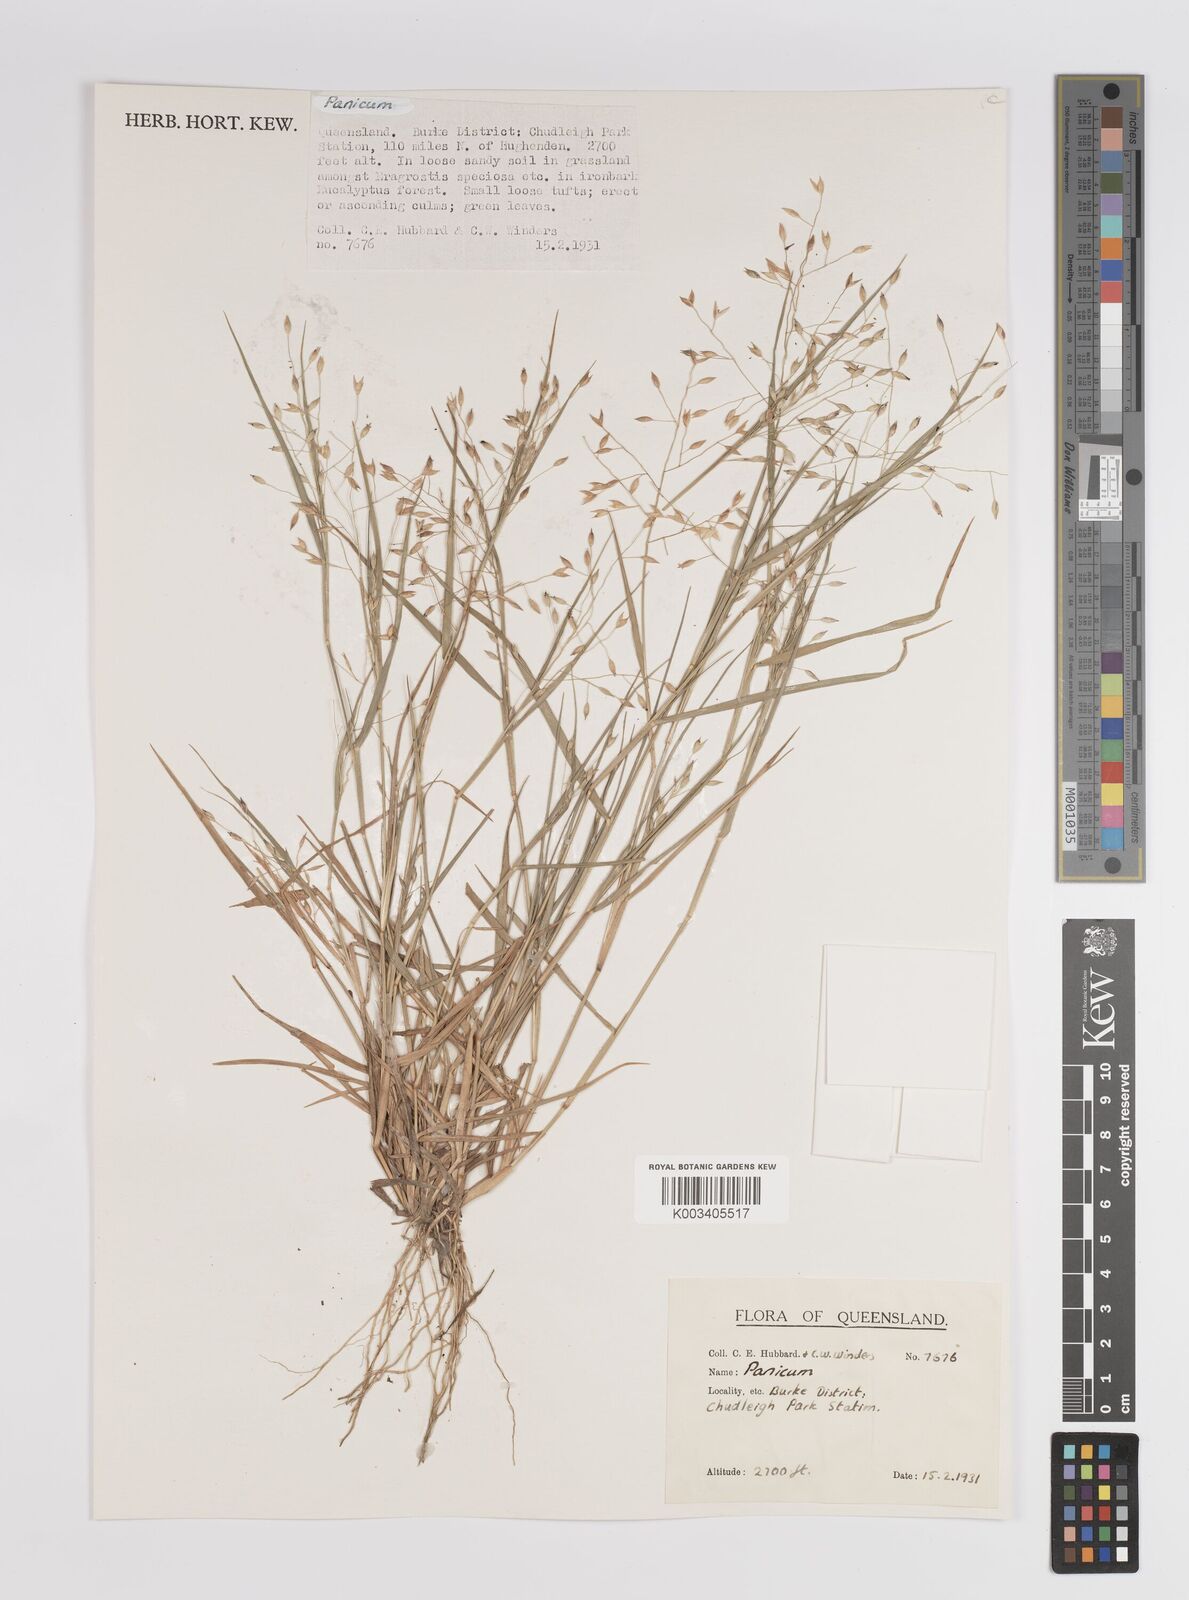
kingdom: Plantae
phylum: Tracheophyta
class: Liliopsida
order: Poales
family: Poaceae
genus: Panicum
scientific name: Panicum
